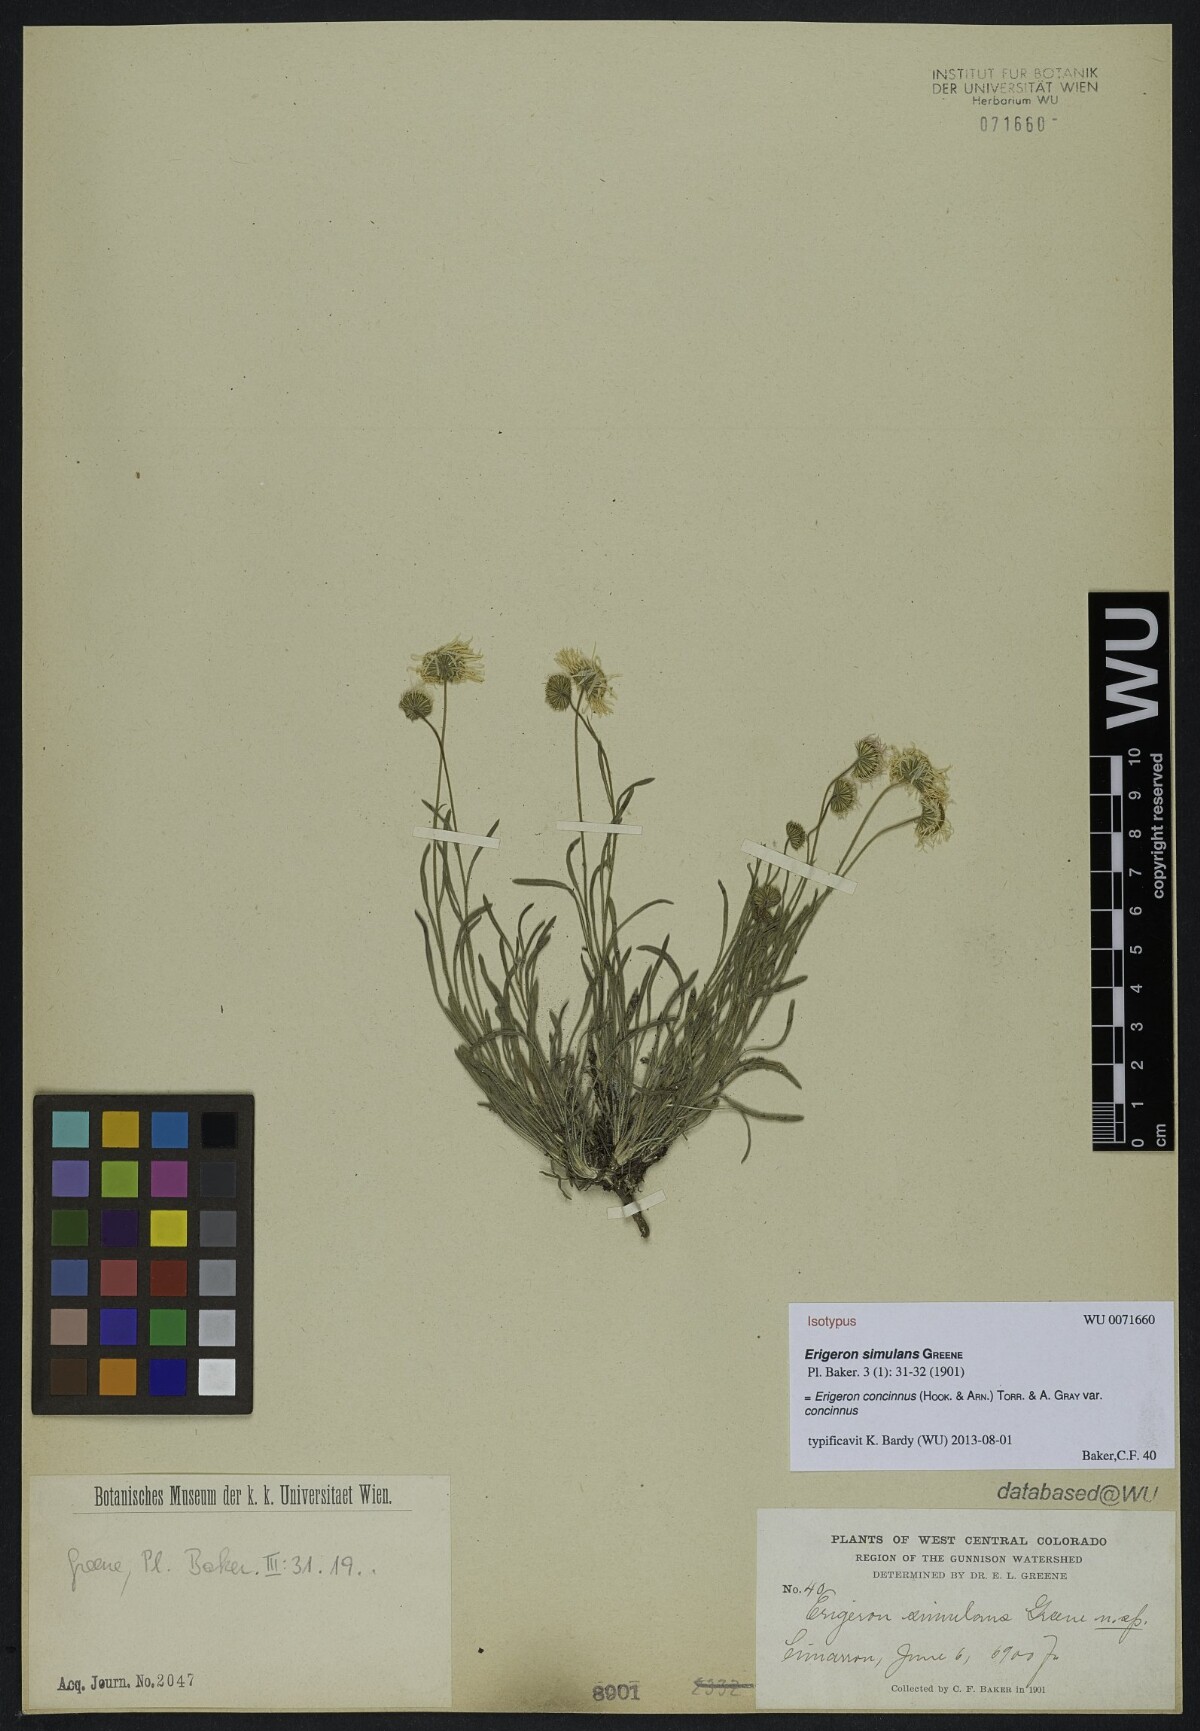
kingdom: Plantae
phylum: Tracheophyta
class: Magnoliopsida
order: Asterales
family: Asteraceae
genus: Erigeron
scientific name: Erigeron concinnus
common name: Navajo fleabane
